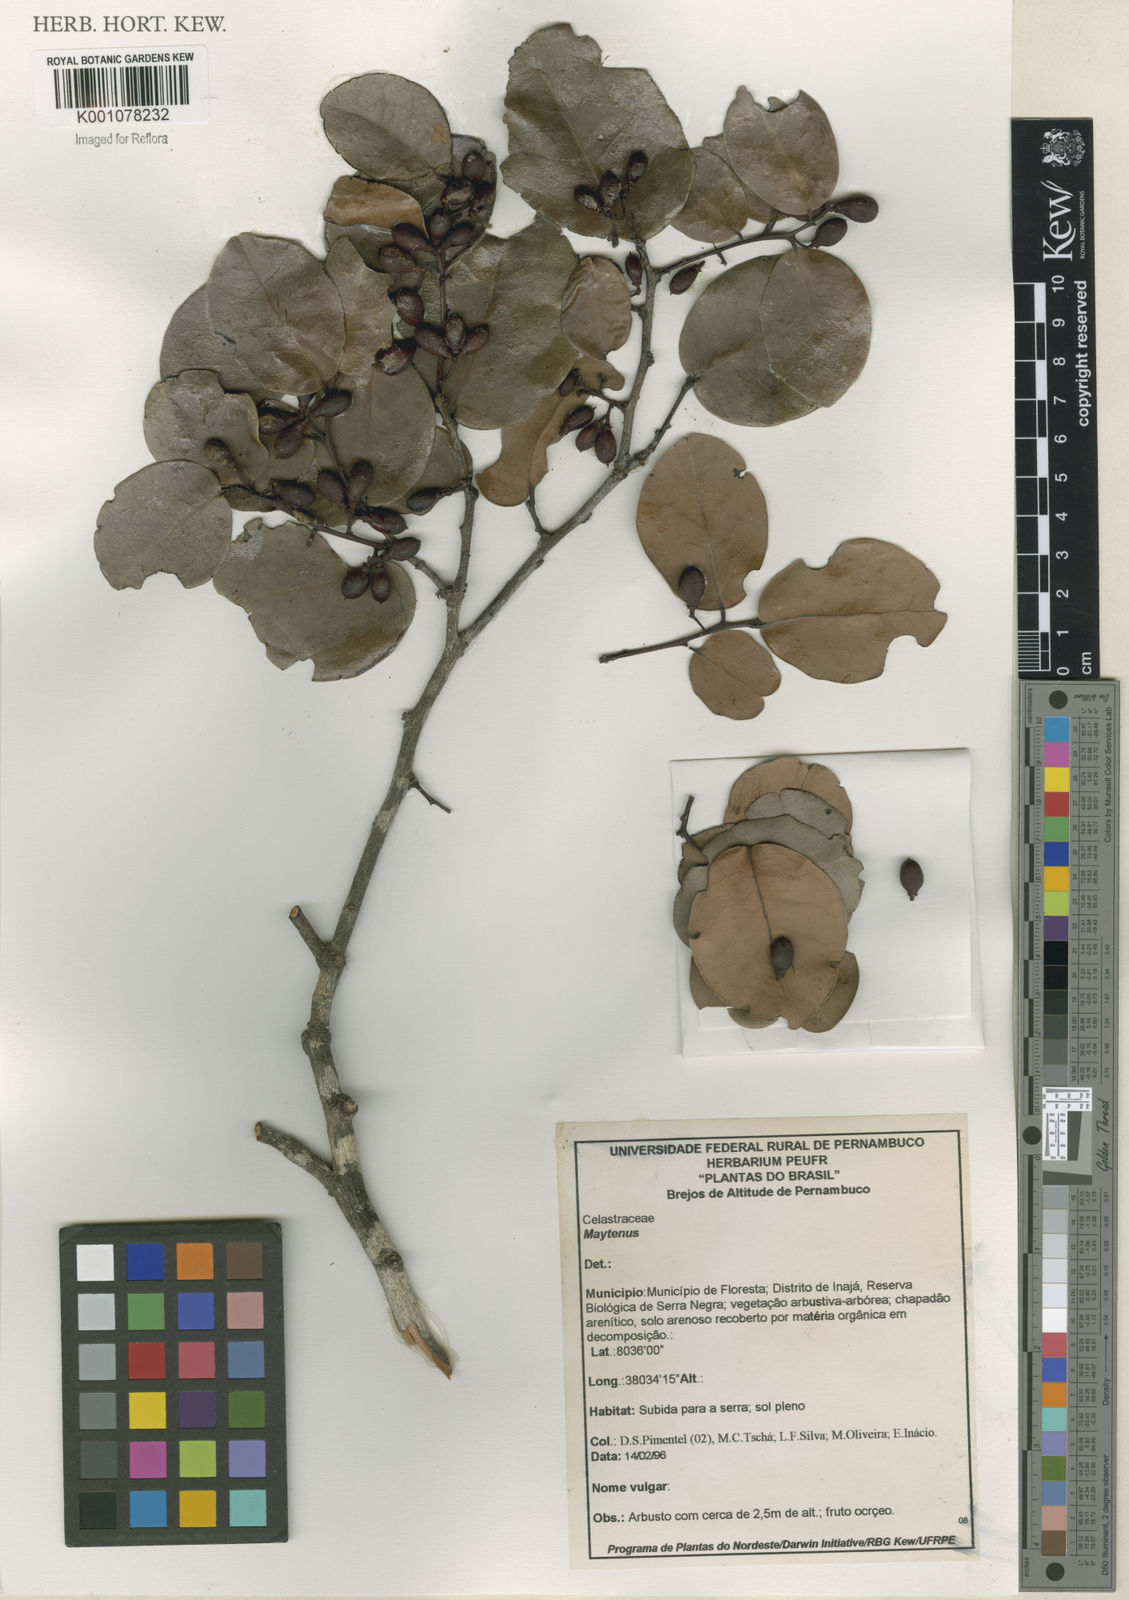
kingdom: Plantae
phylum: Tracheophyta
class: Magnoliopsida
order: Celastrales
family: Celastraceae
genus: Maytenus
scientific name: Maytenus
